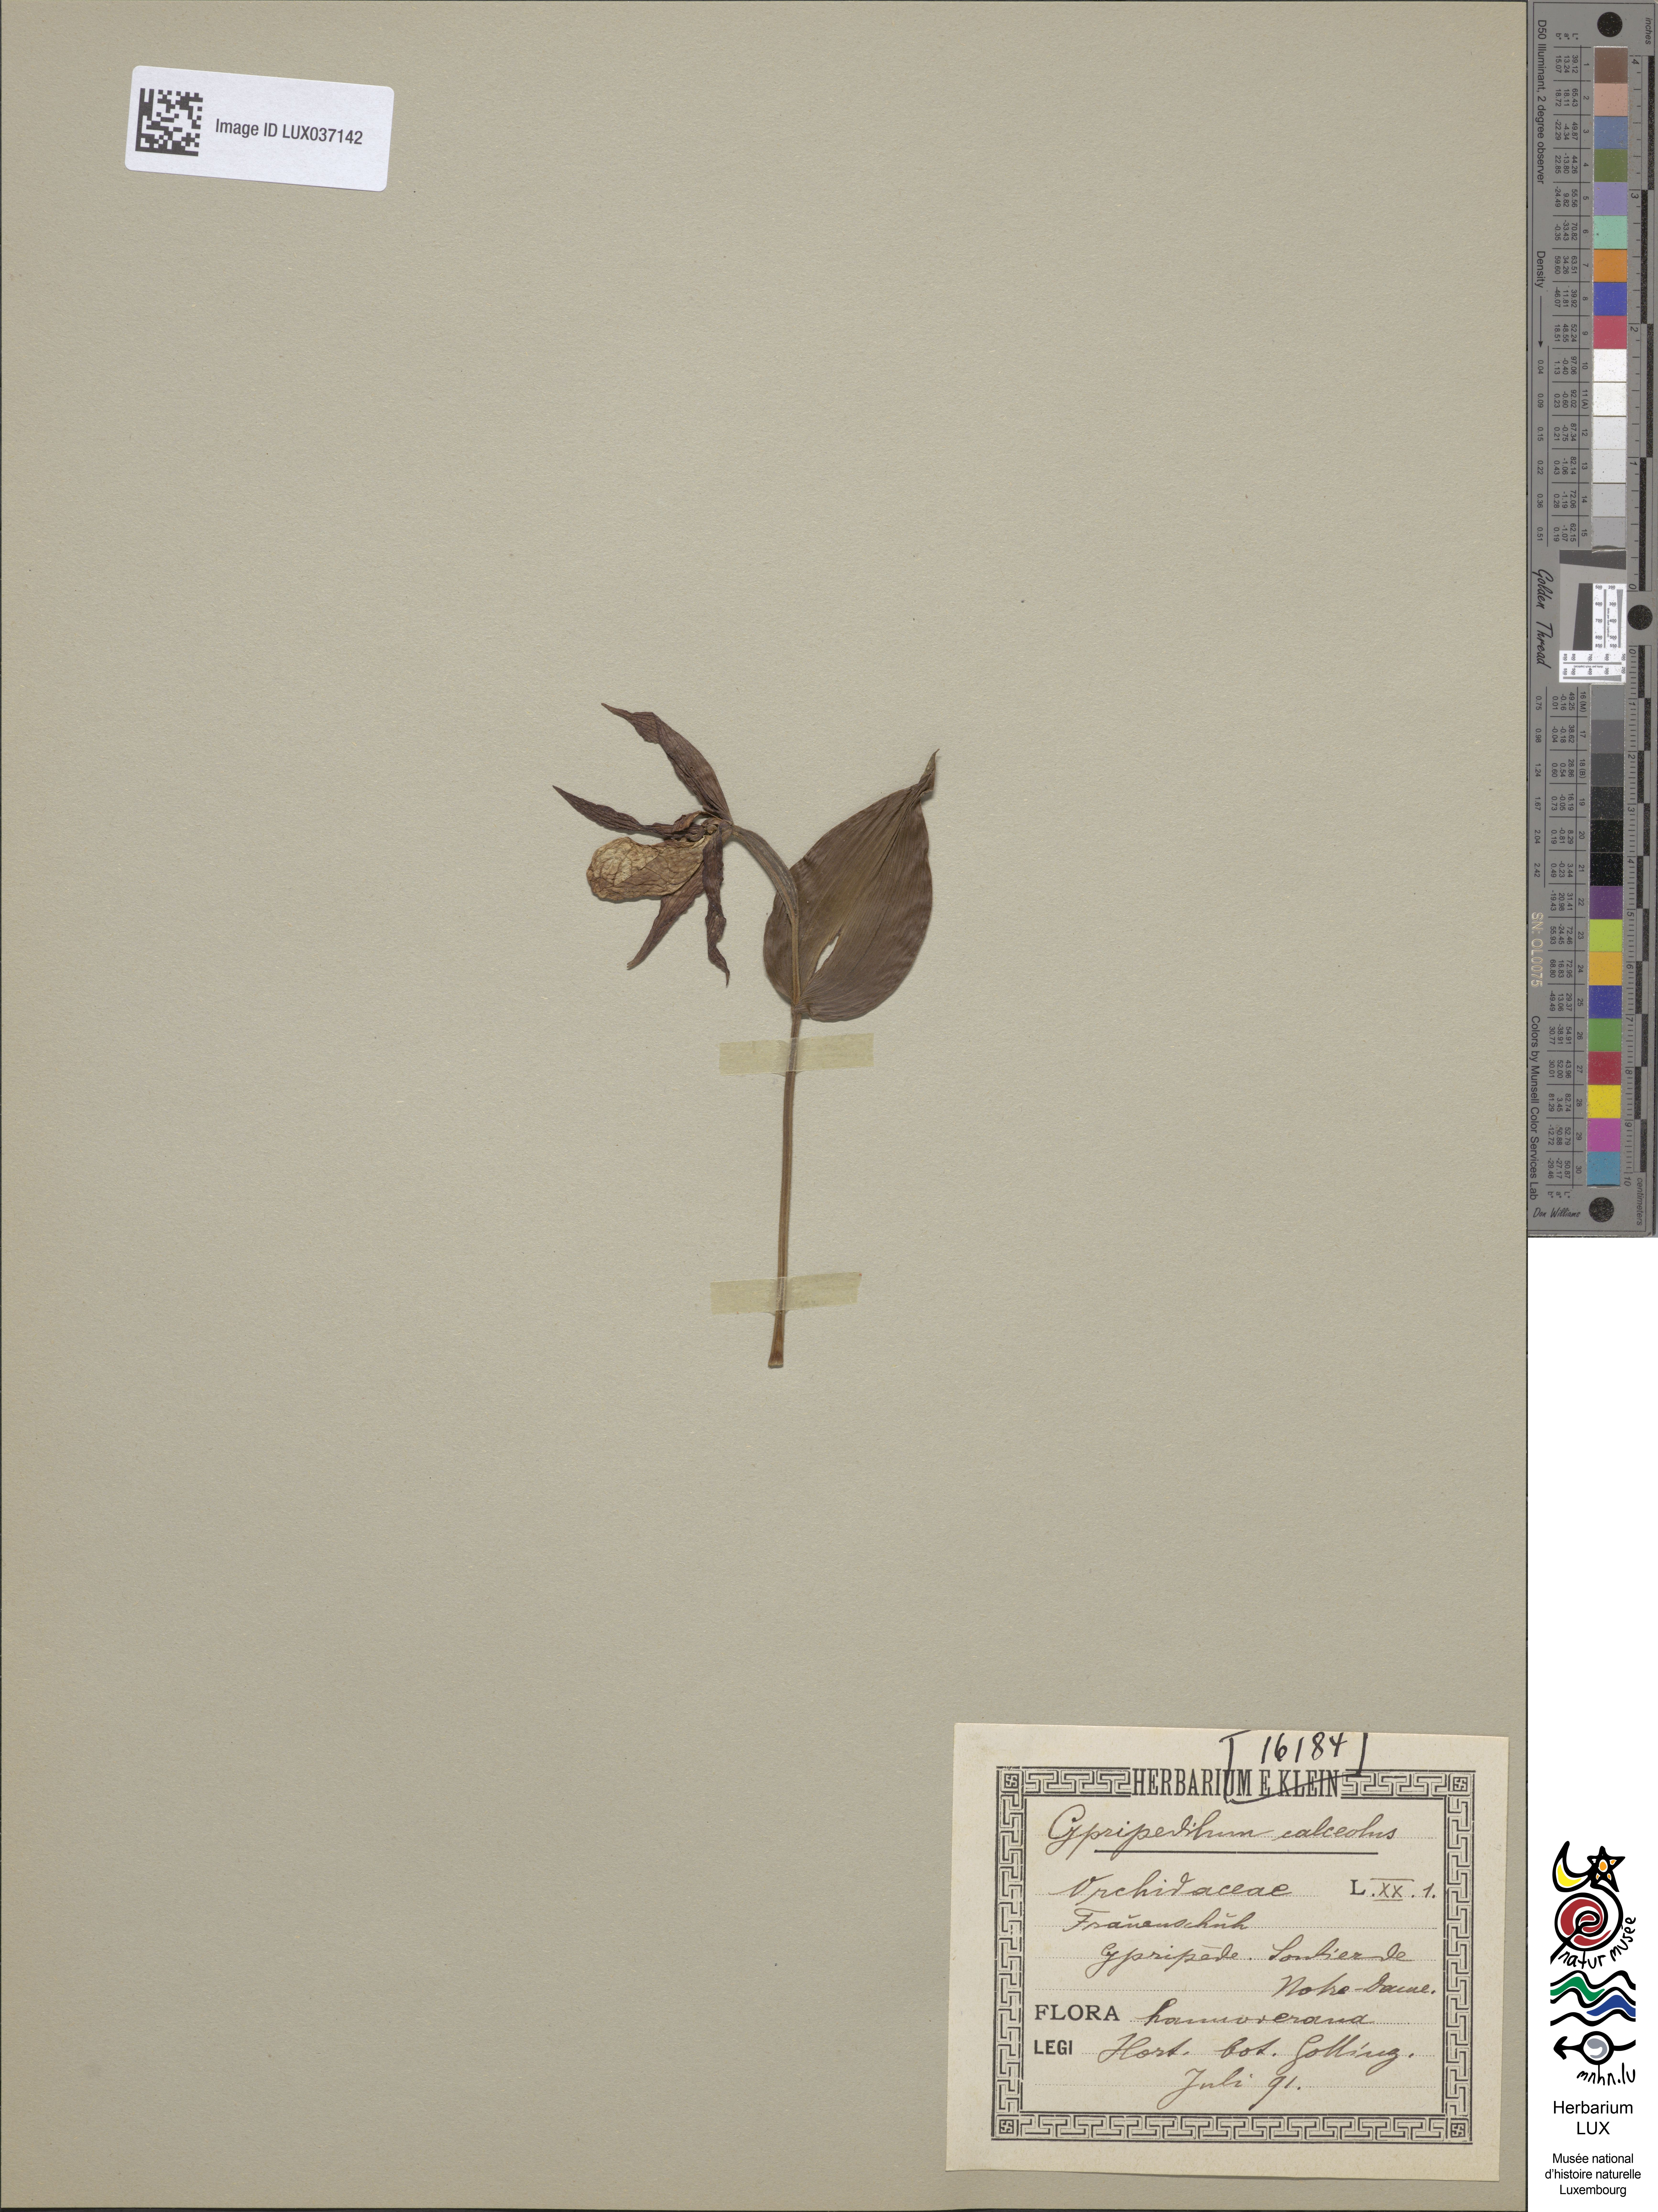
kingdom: Plantae
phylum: Tracheophyta
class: Liliopsida
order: Asparagales
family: Orchidaceae
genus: Cypripedium
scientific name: Cypripedium calceolus
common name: Lady's-slipper
